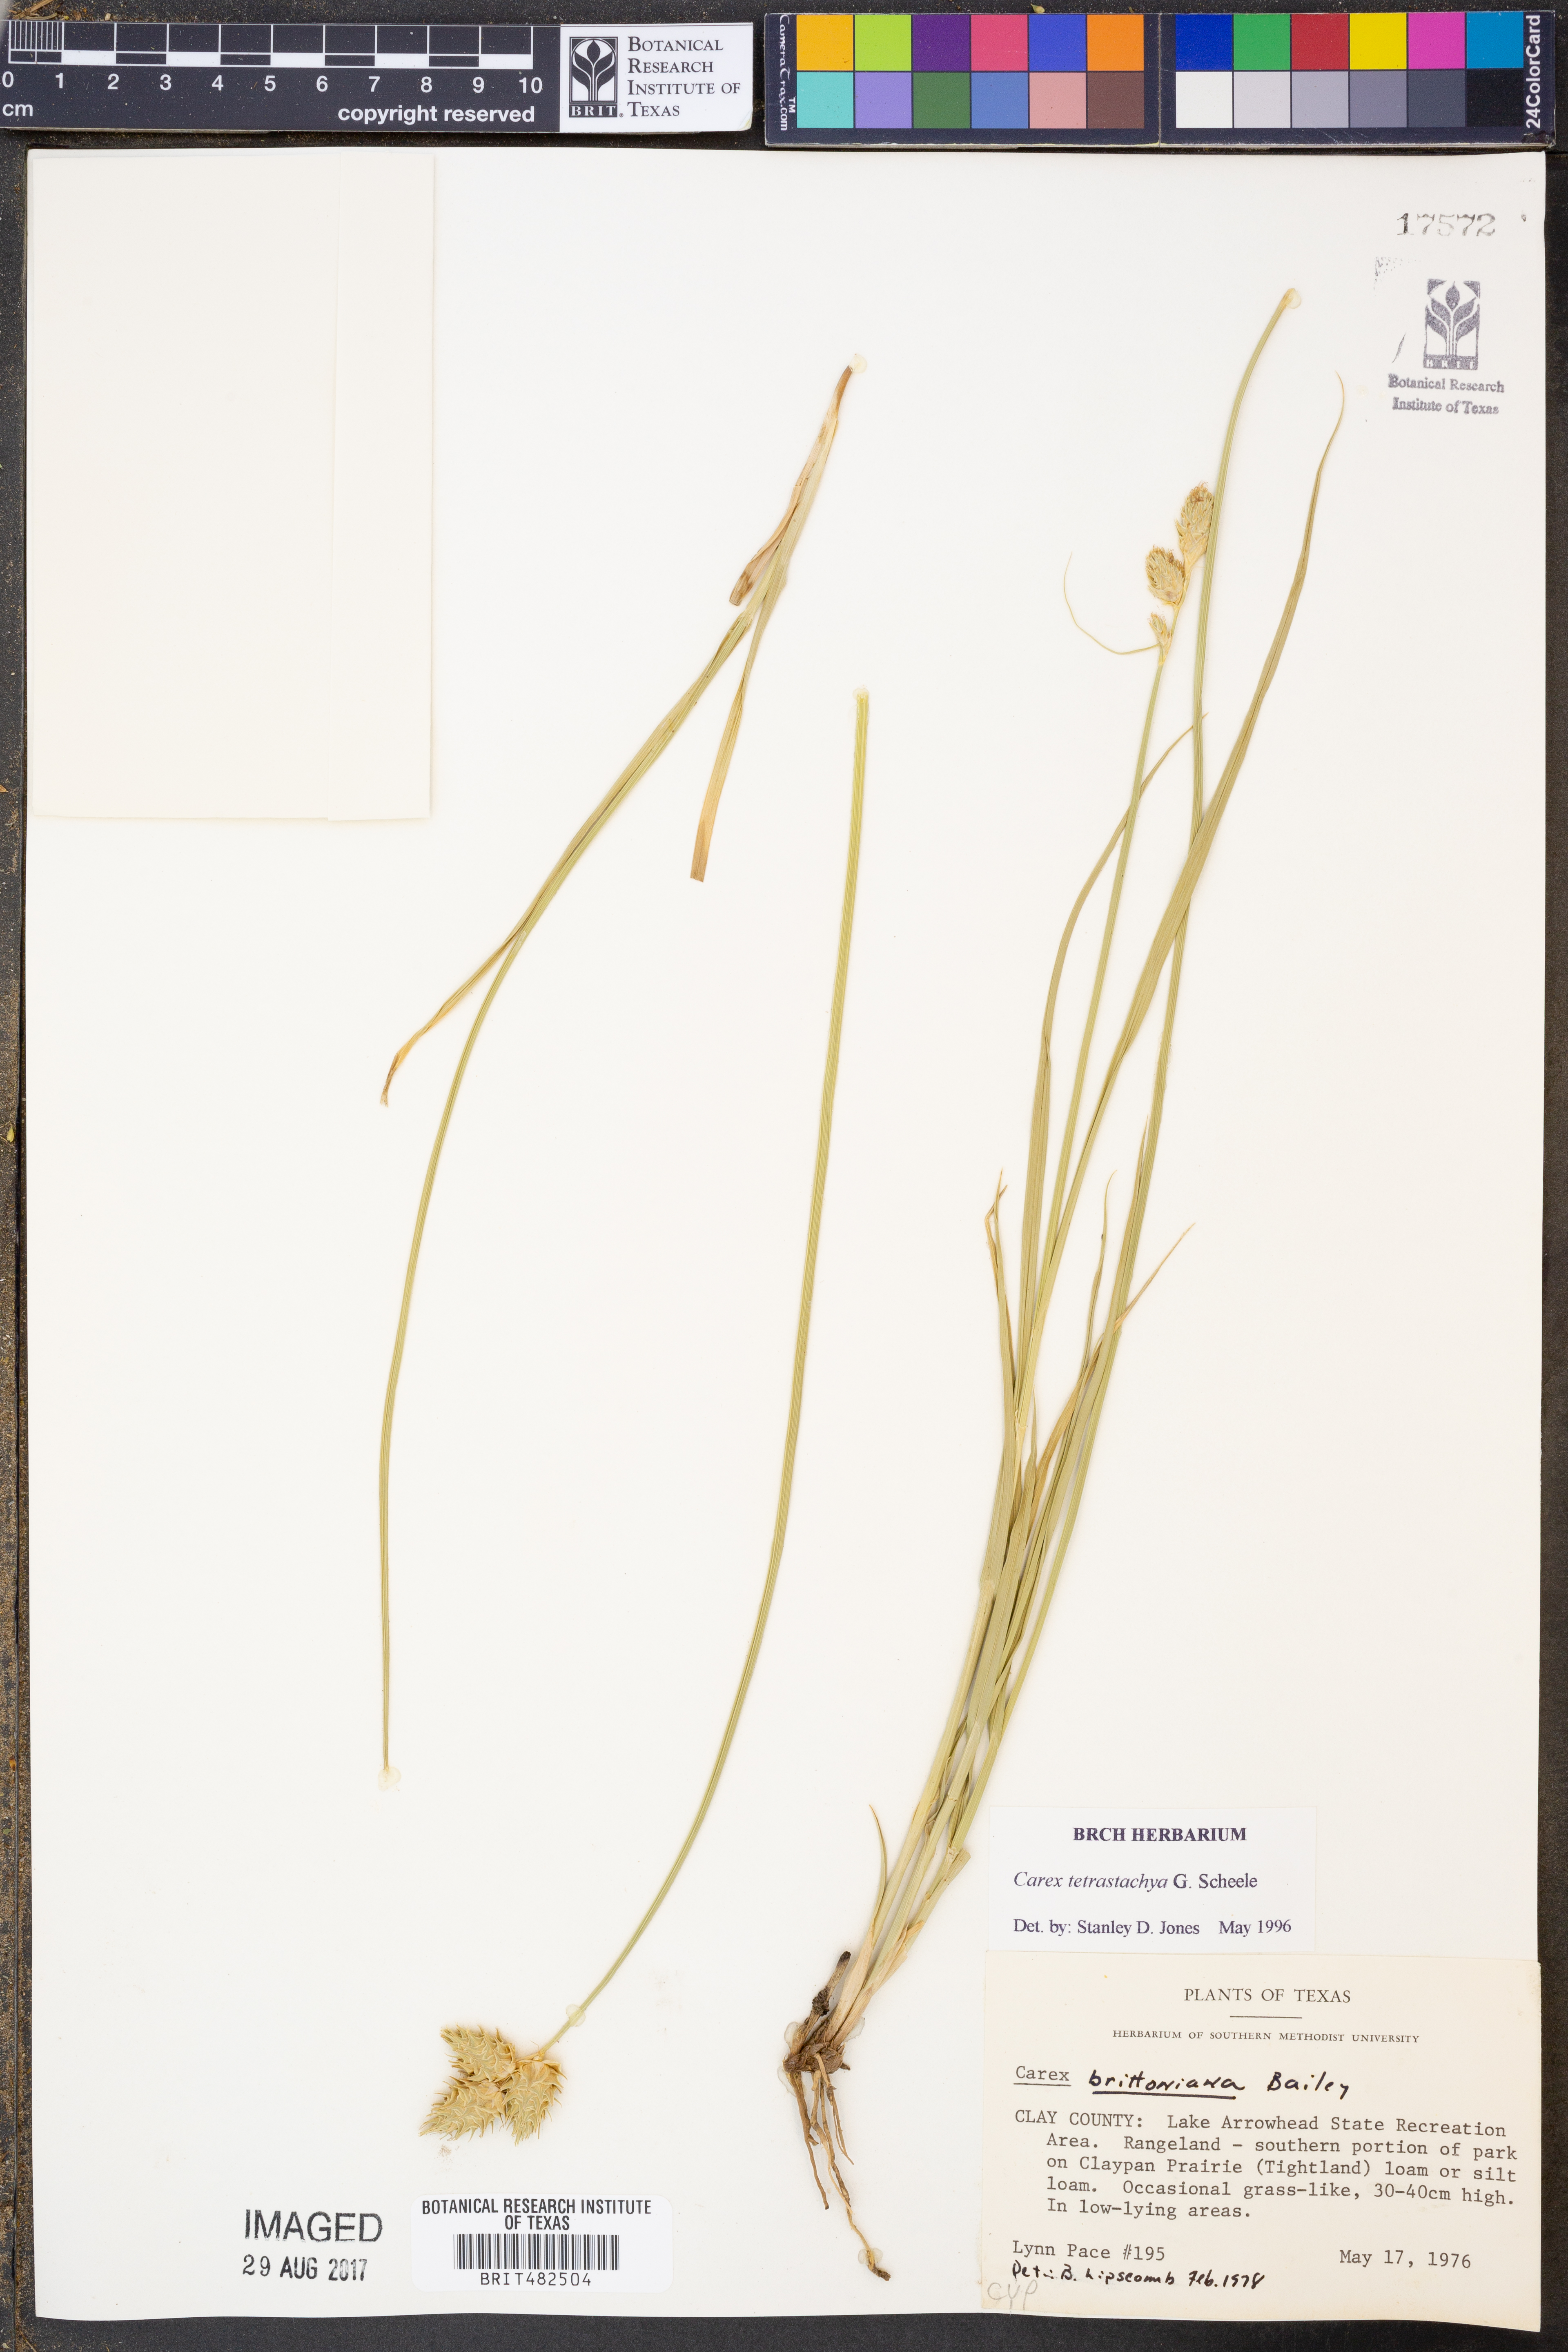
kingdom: Plantae
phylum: Tracheophyta
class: Liliopsida
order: Poales
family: Cyperaceae
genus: Carex
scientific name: Carex tetrastachya
